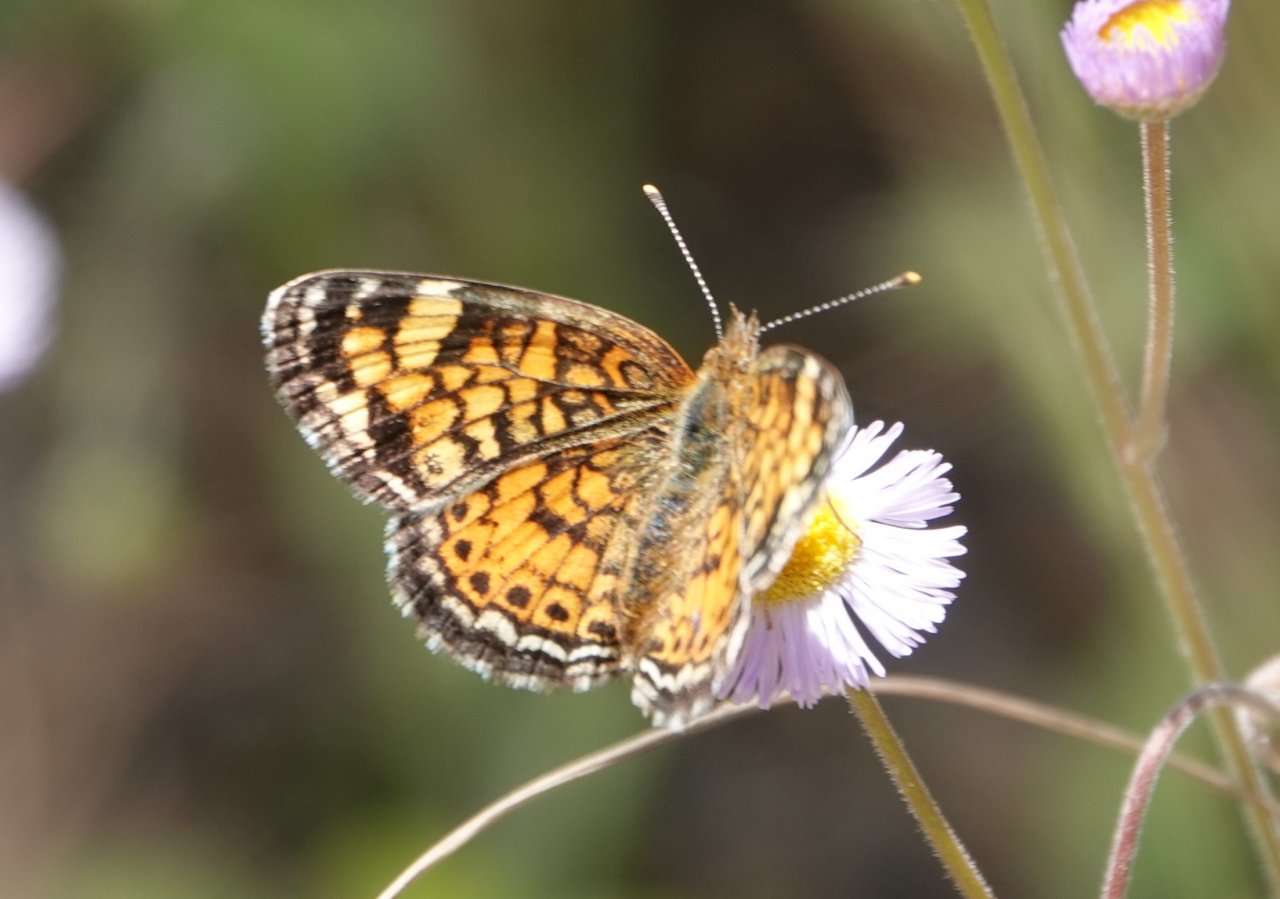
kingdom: Animalia
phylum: Arthropoda
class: Insecta
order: Lepidoptera
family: Nymphalidae
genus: Phyciodes
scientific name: Phyciodes tharos
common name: Pearl Crescent
